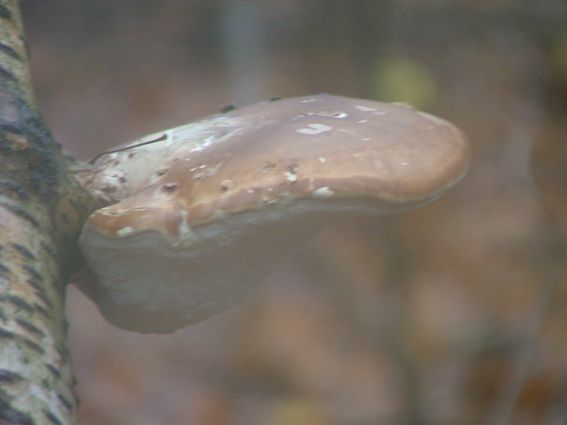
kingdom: Fungi
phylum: Basidiomycota
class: Agaricomycetes
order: Polyporales
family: Fomitopsidaceae
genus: Fomitopsis
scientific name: Fomitopsis betulina
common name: birkeporesvamp
